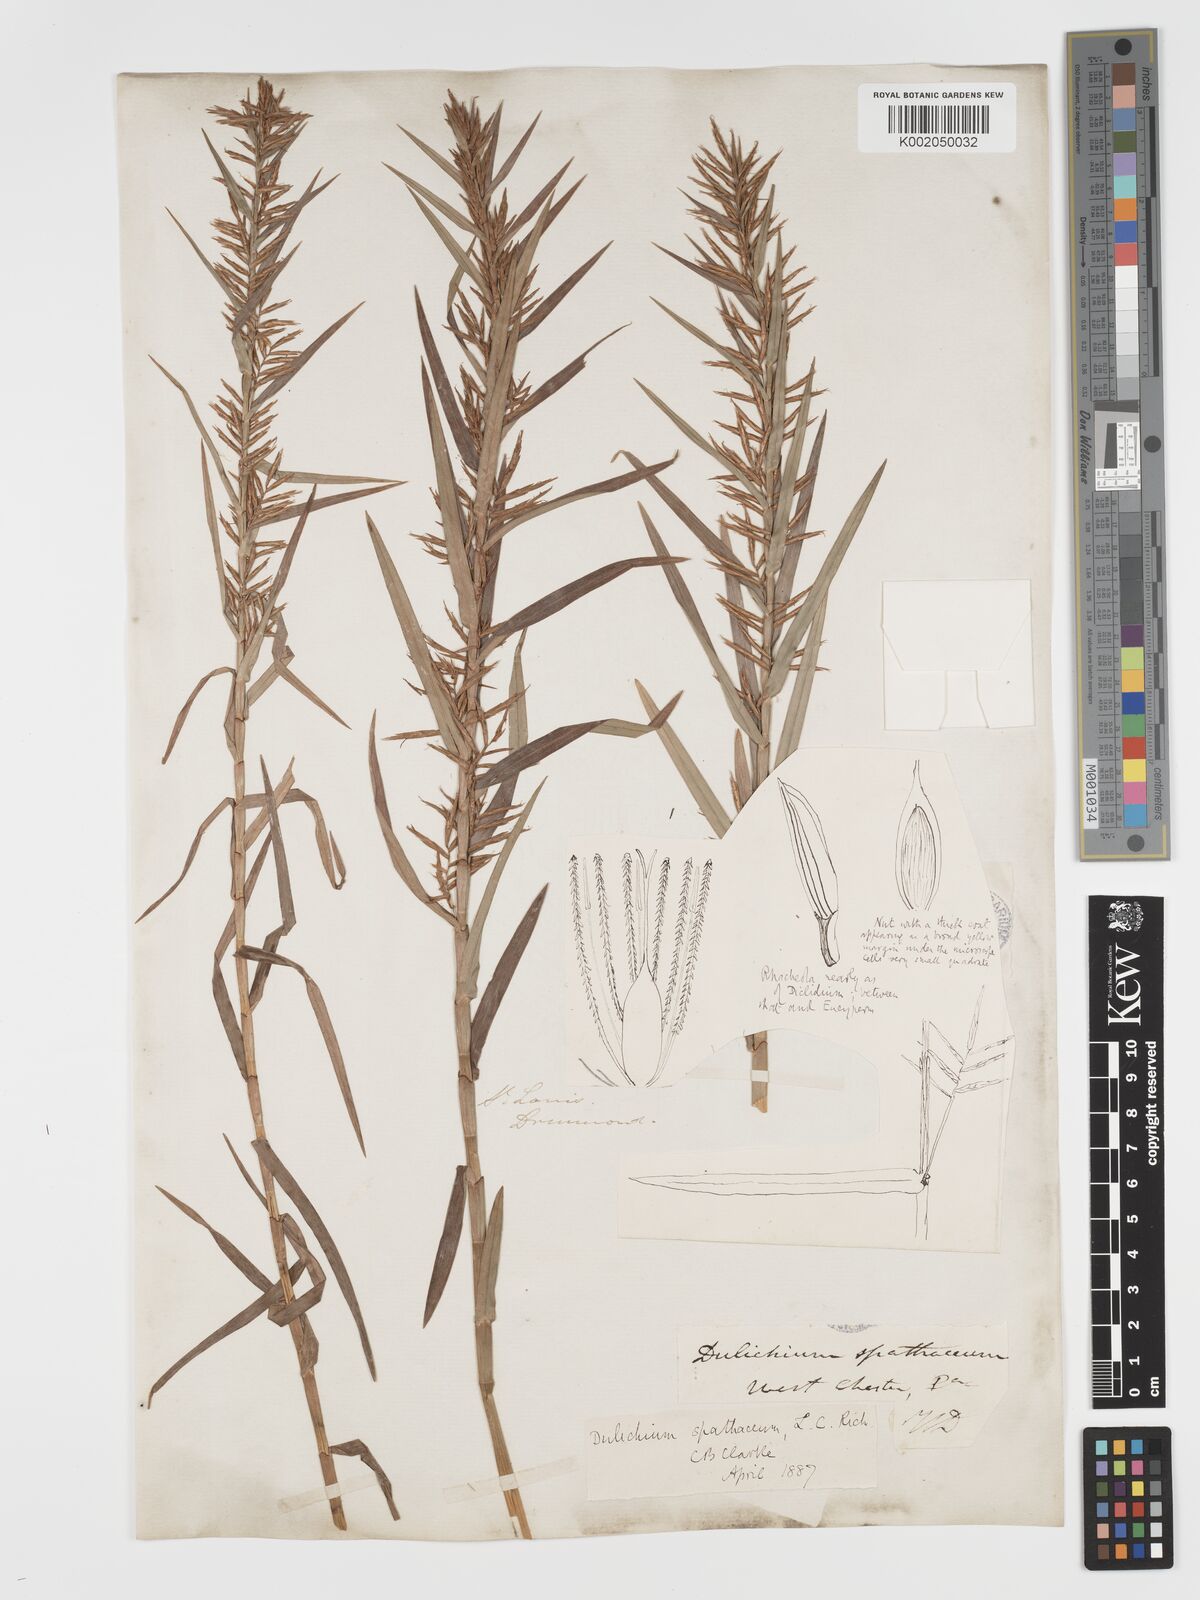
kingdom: Plantae
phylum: Tracheophyta
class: Liliopsida
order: Poales
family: Cyperaceae
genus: Dulichium
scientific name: Dulichium arundinaceum
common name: Three-way sedge
